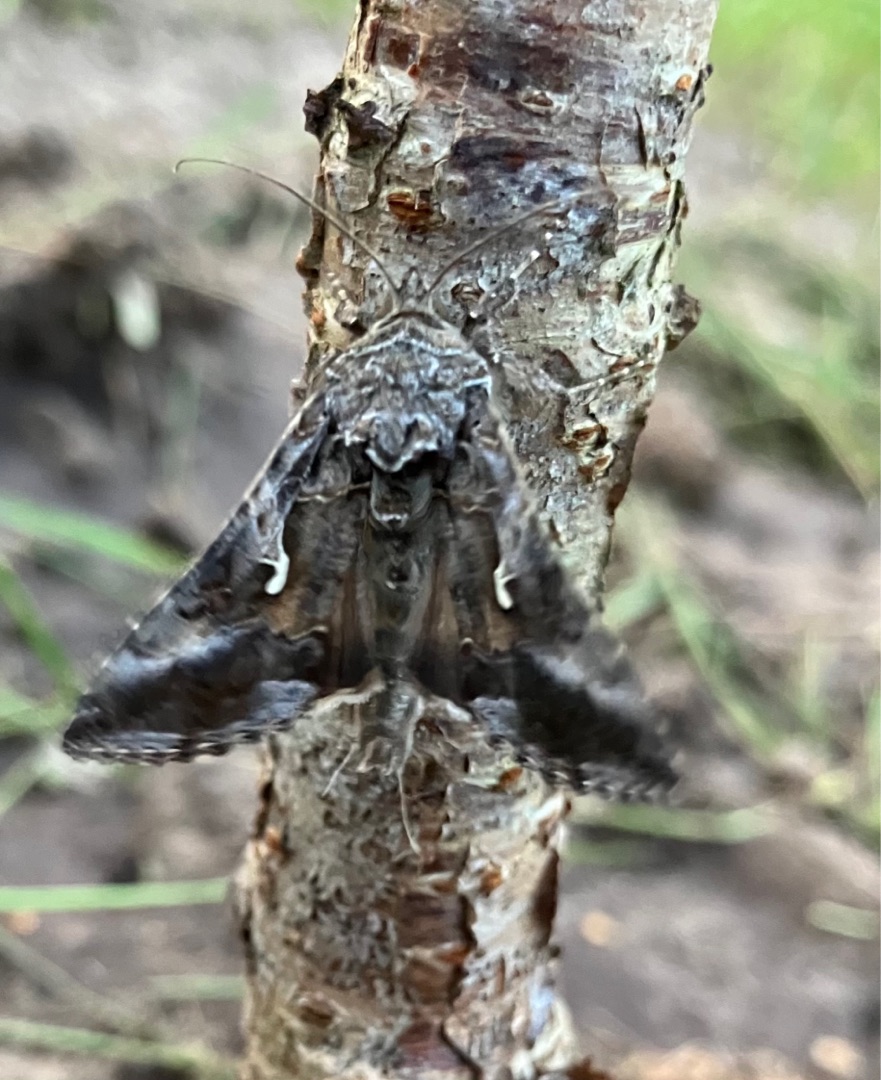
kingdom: Animalia
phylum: Arthropoda
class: Insecta
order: Lepidoptera
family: Noctuidae
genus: Autographa
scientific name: Autographa gamma
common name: Gammaugle
